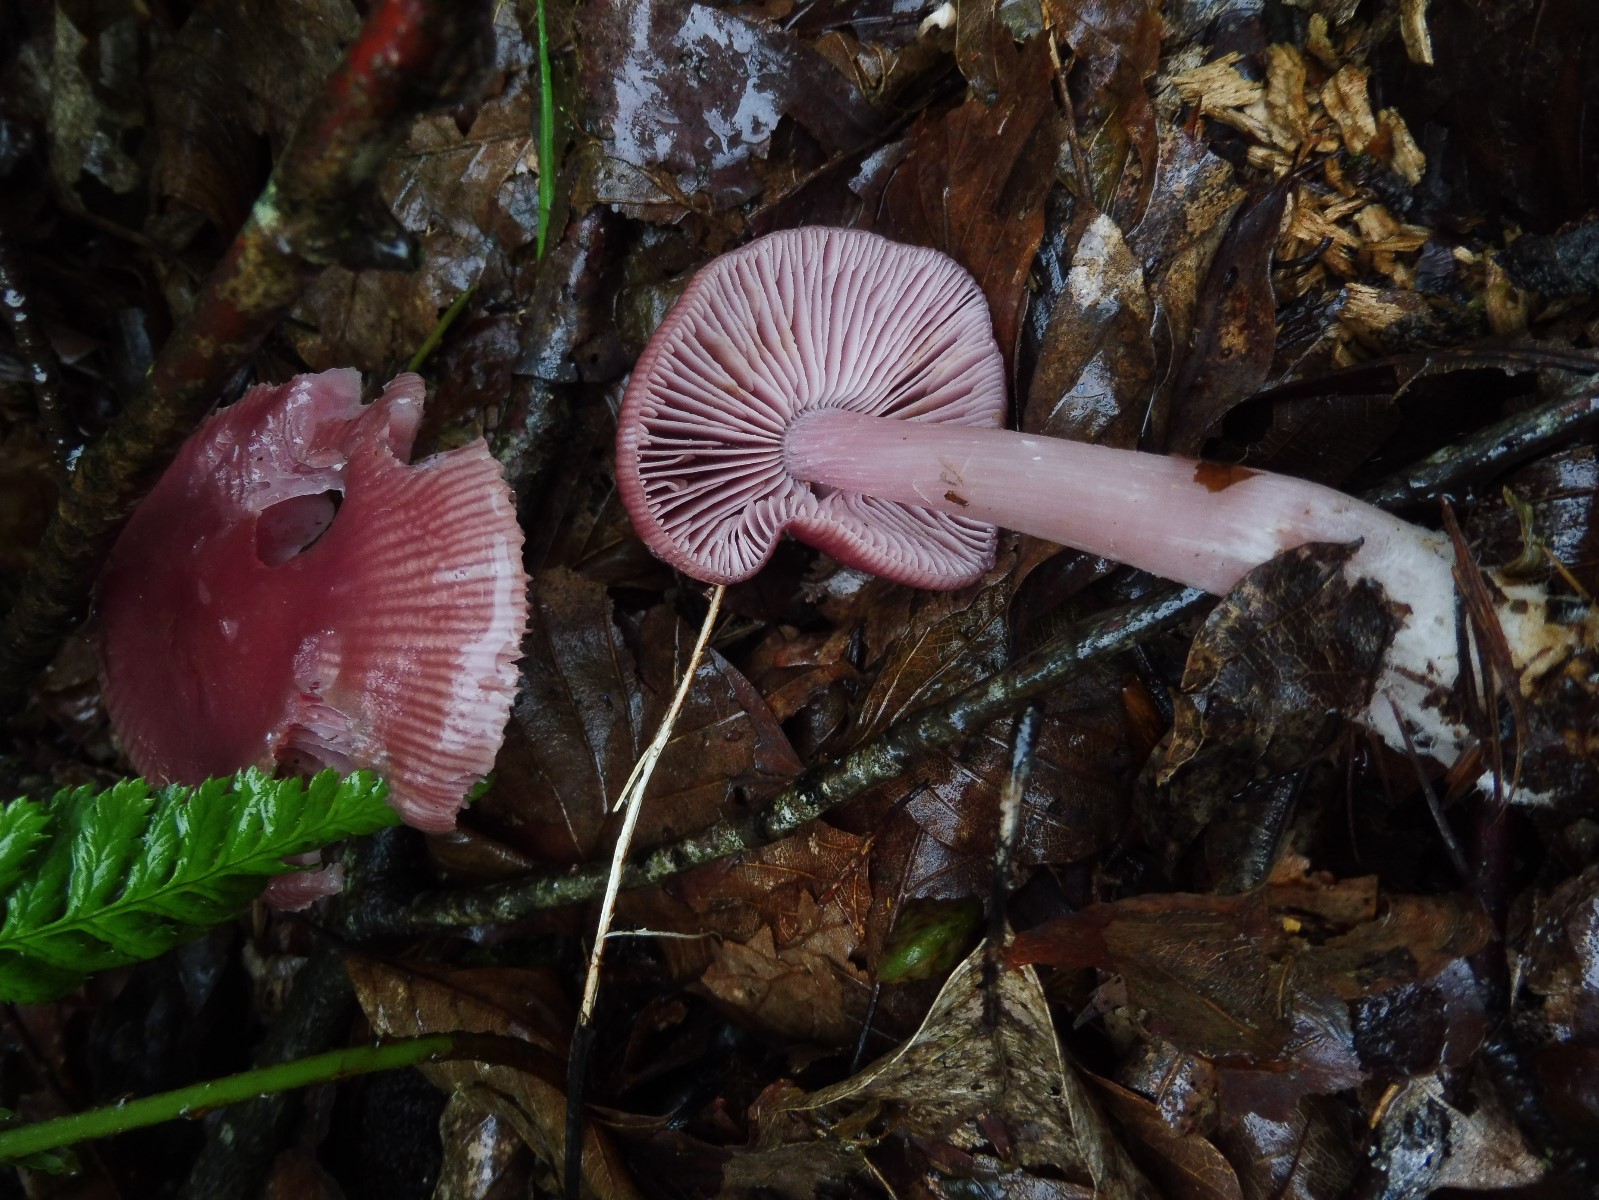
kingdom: Fungi
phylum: Basidiomycota
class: Agaricomycetes
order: Agaricales
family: Mycenaceae
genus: Mycena
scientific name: Mycena rosea
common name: rosa huesvamp
